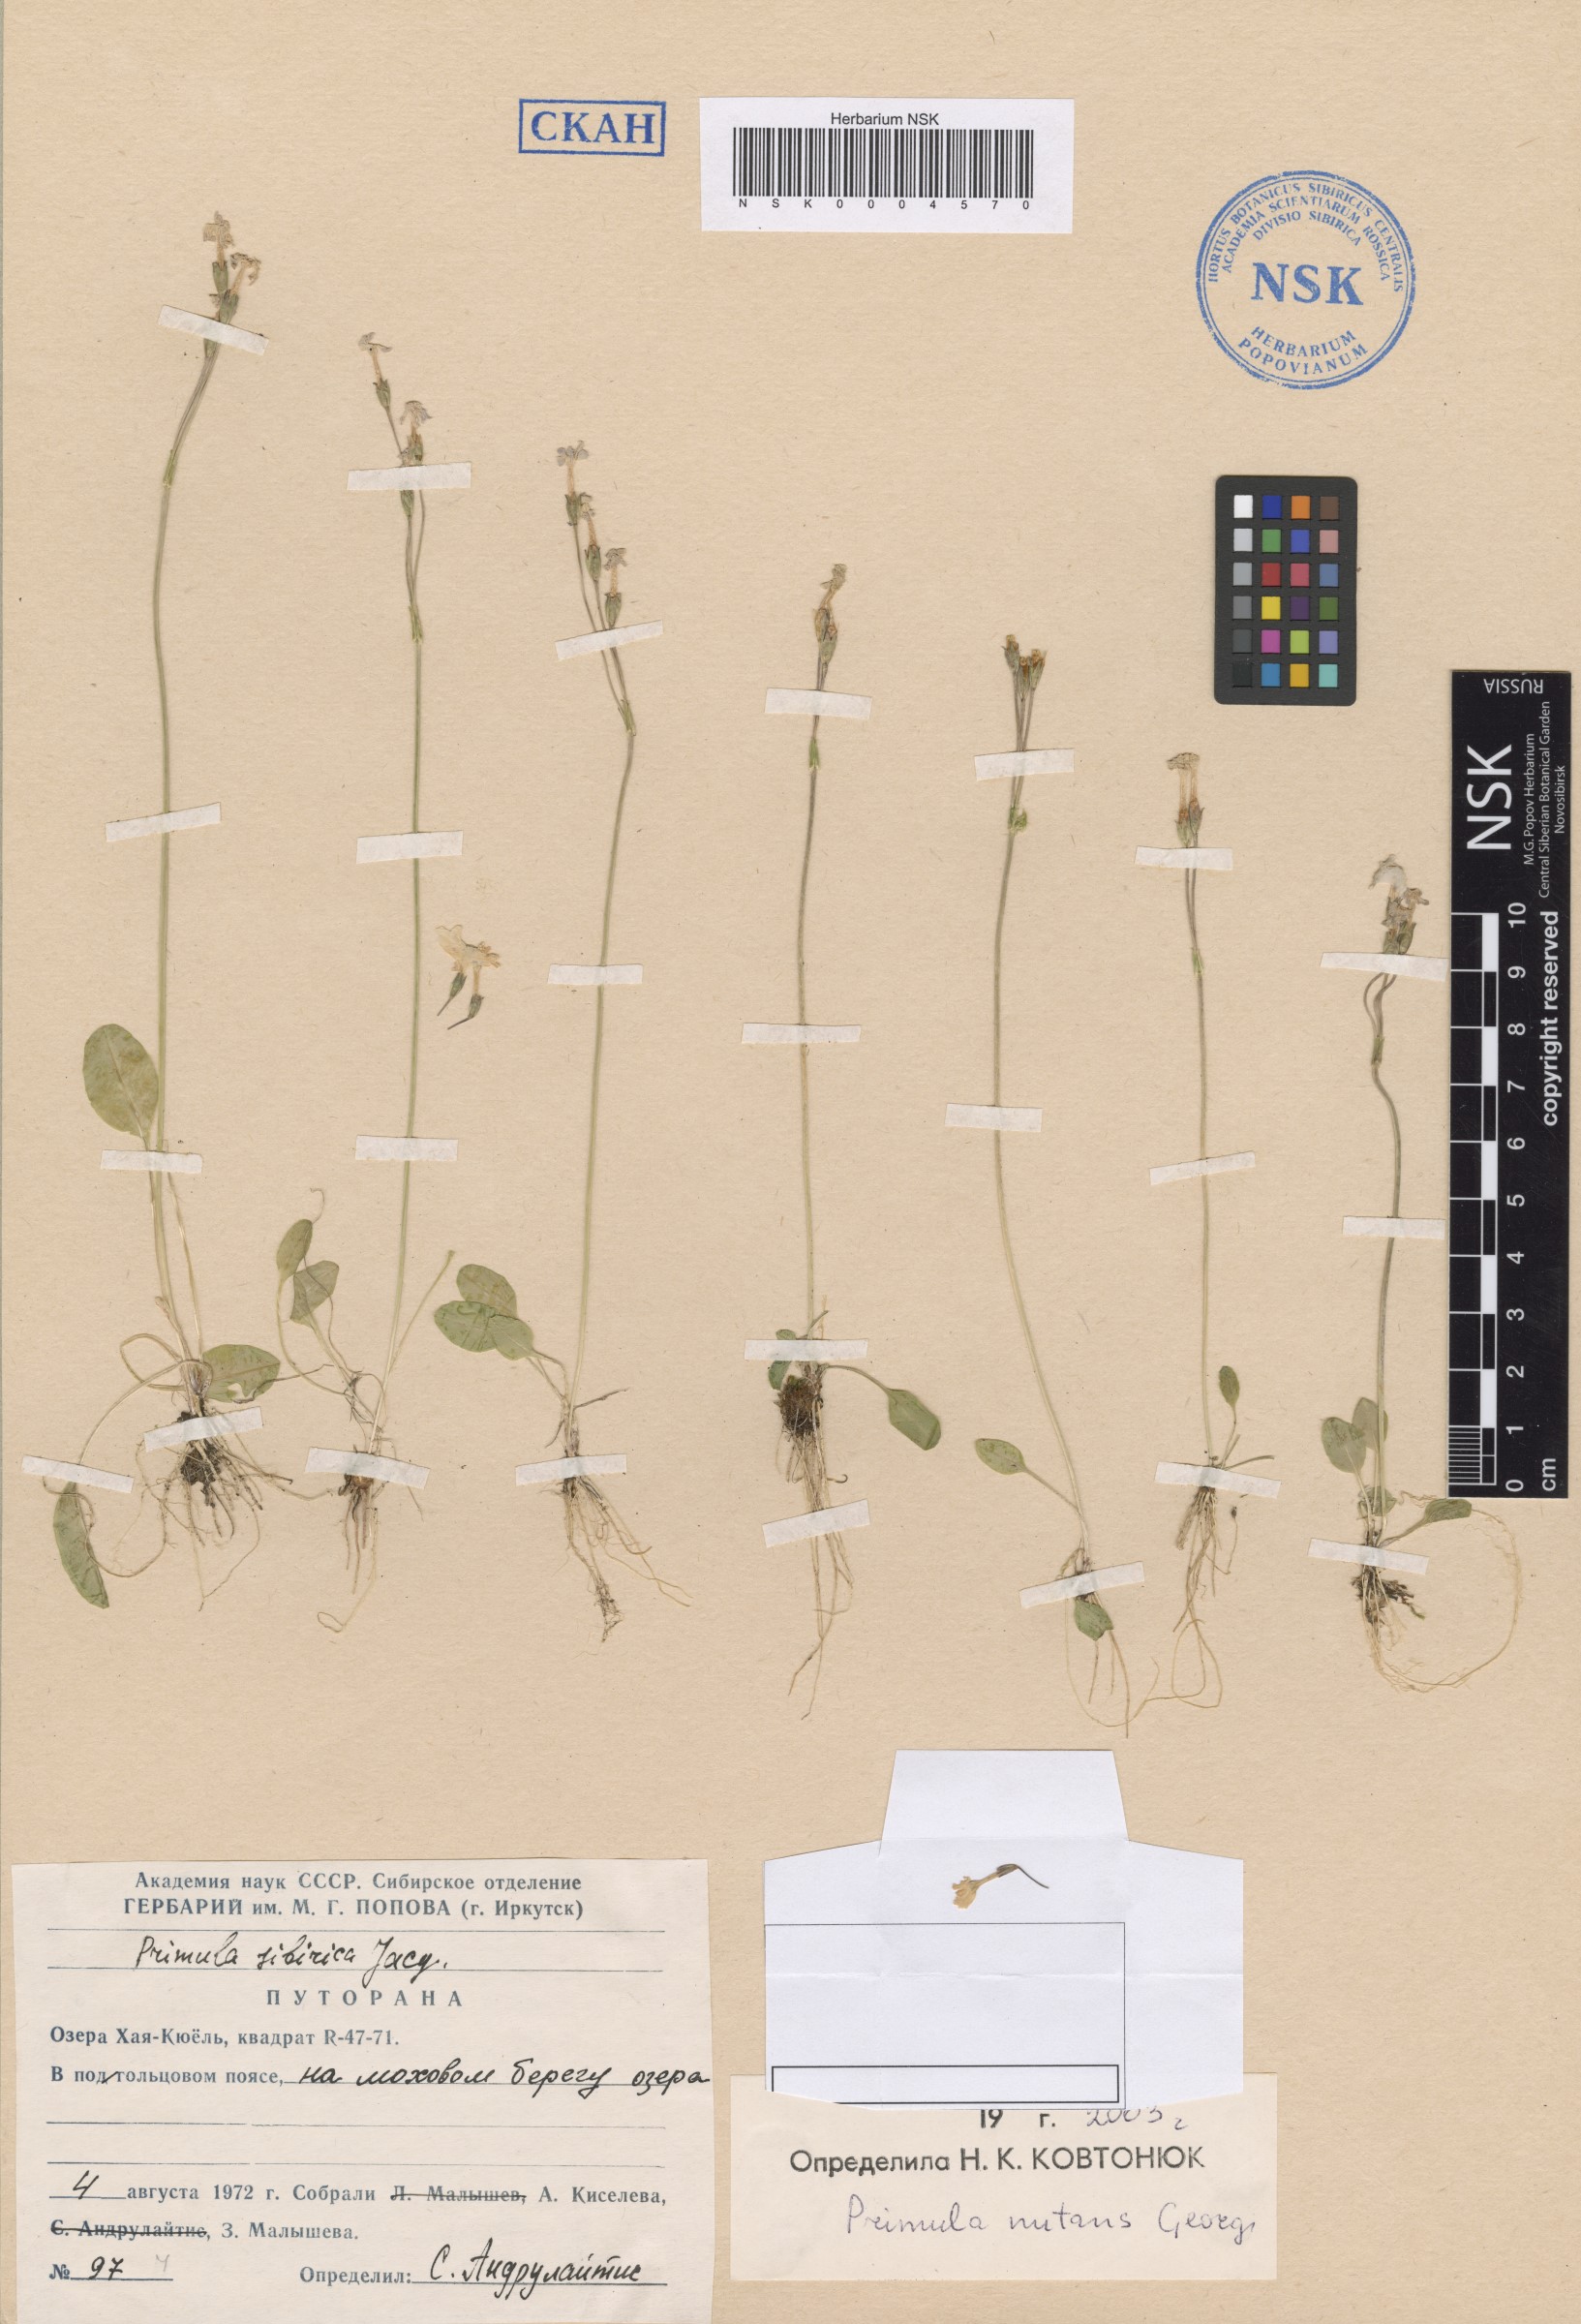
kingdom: Plantae
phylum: Tracheophyta
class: Magnoliopsida
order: Ericales
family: Primulaceae
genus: Primula
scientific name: Primula nutans
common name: Siberian primrose
